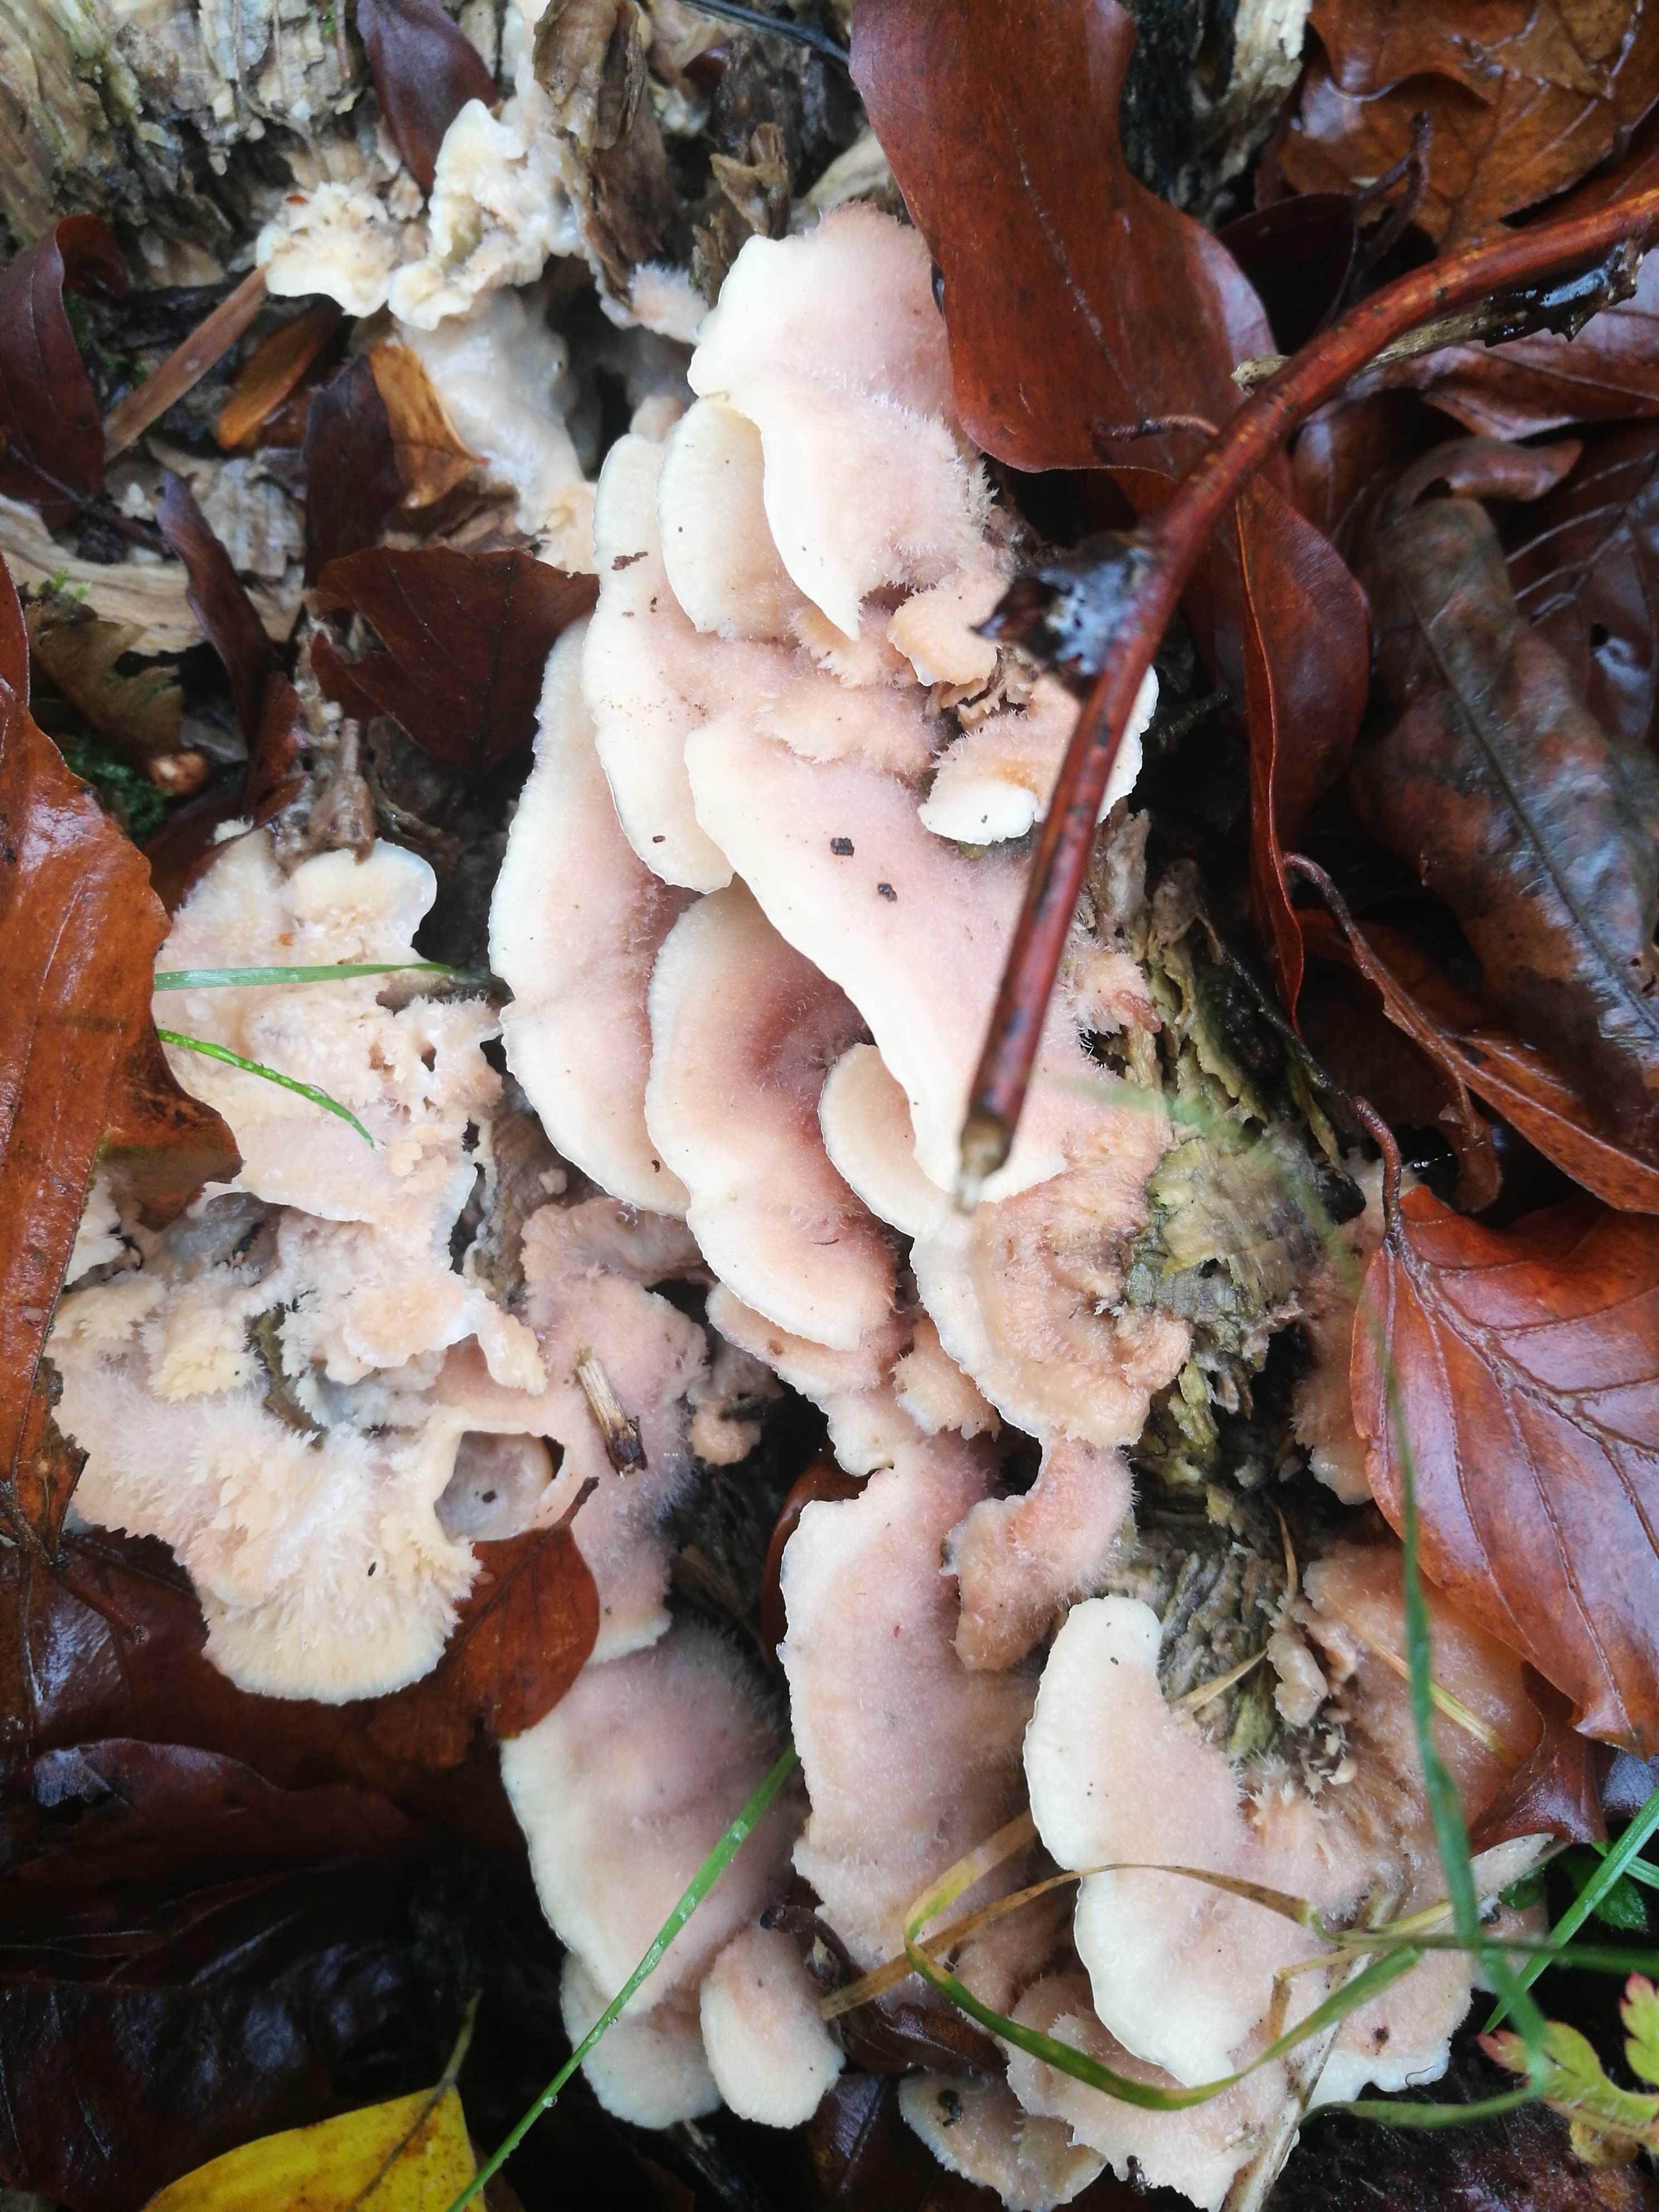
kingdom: Fungi
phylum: Basidiomycota
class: Agaricomycetes
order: Polyporales
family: Meruliaceae
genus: Phlebia
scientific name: Phlebia tremellosa
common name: bævrende åresvamp
